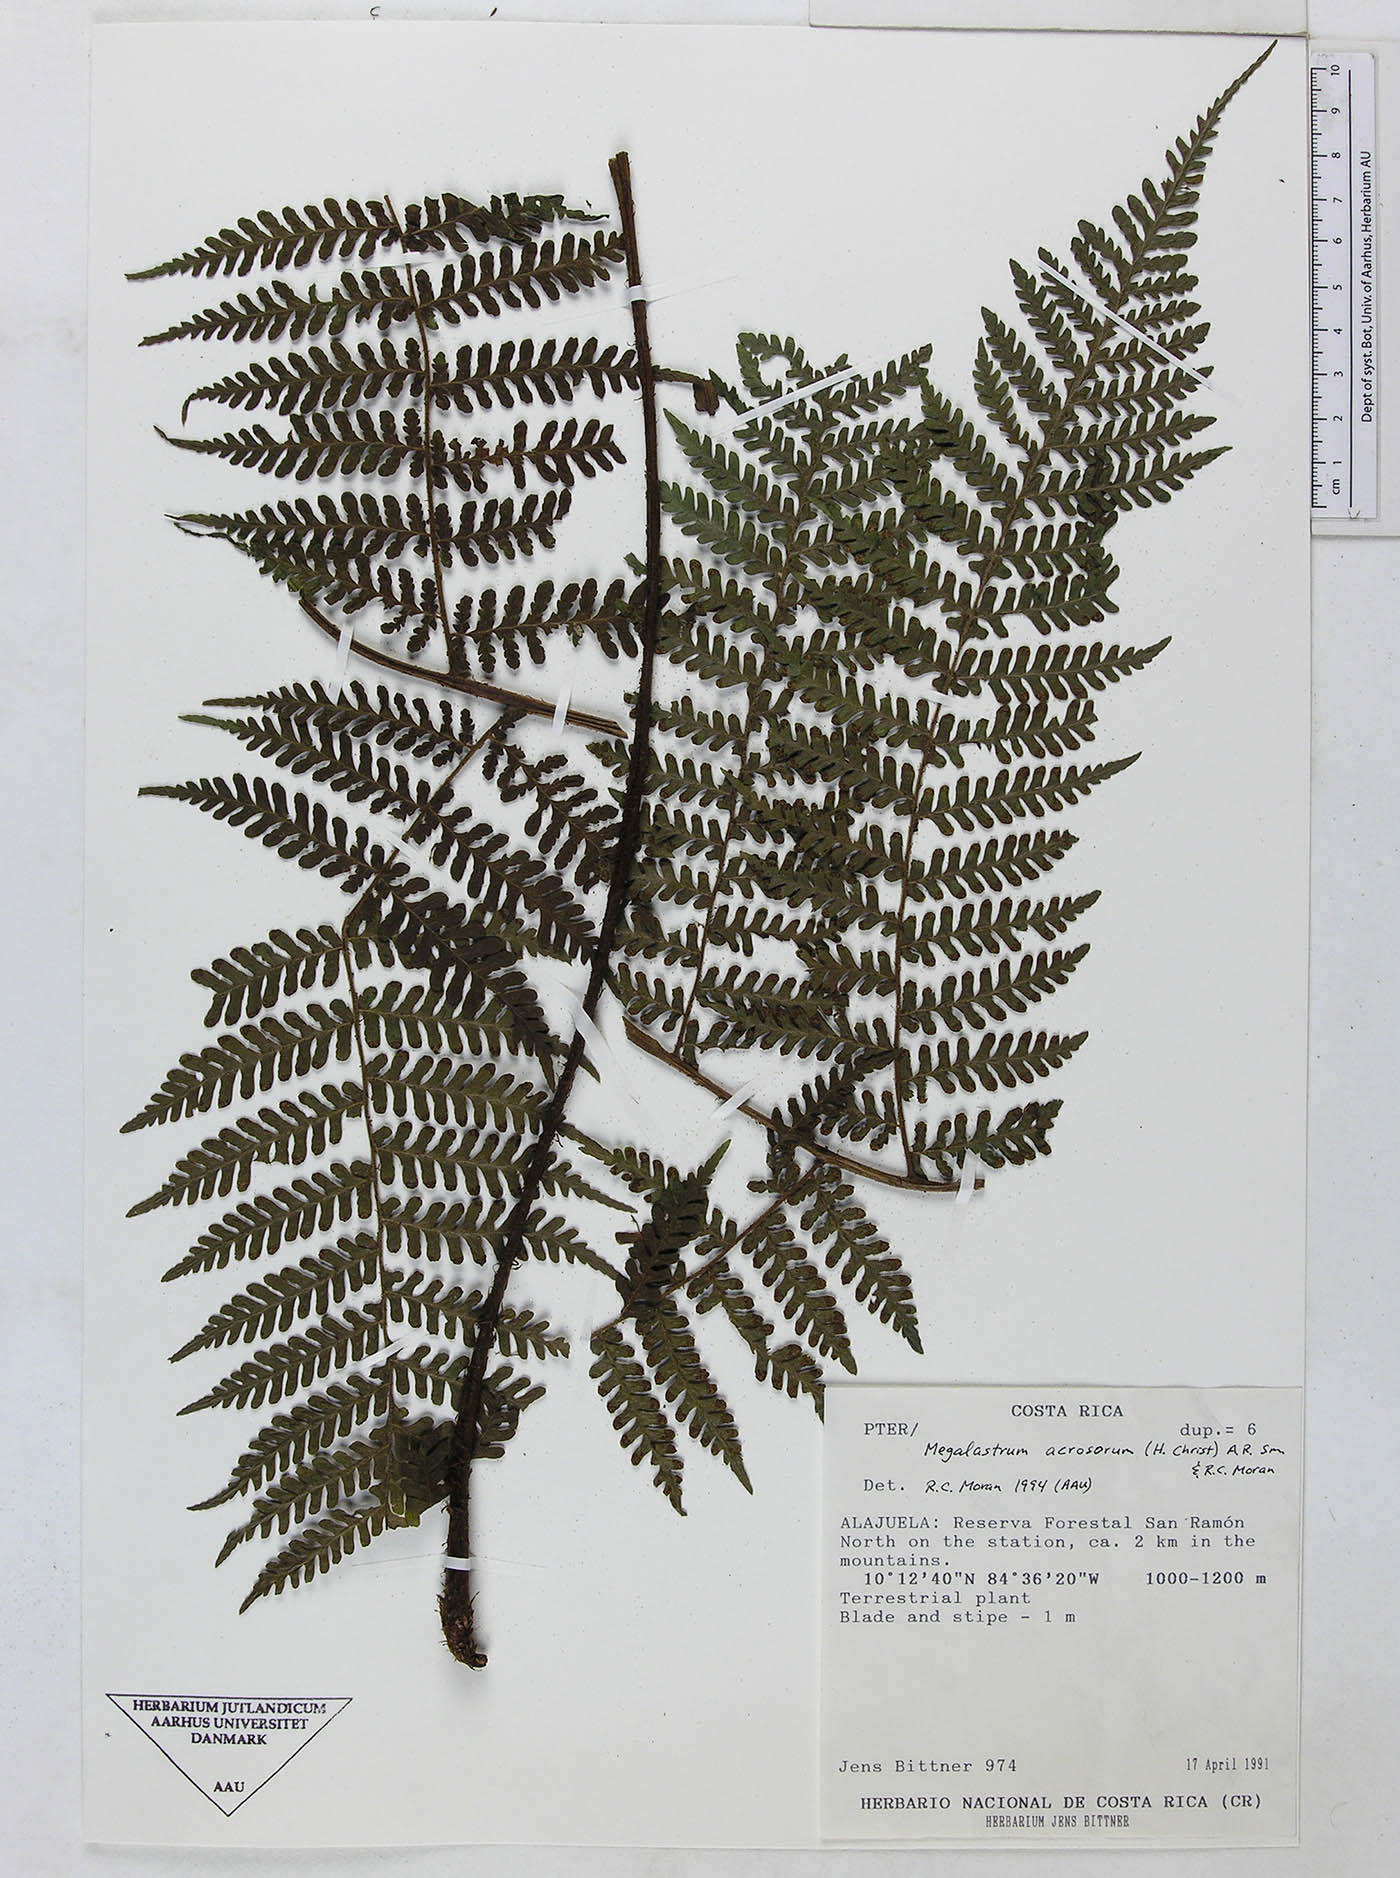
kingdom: Plantae
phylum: Tracheophyta
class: Polypodiopsida
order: Polypodiales
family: Dryopteridaceae
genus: Megalastrum
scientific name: Megalastrum apicale
